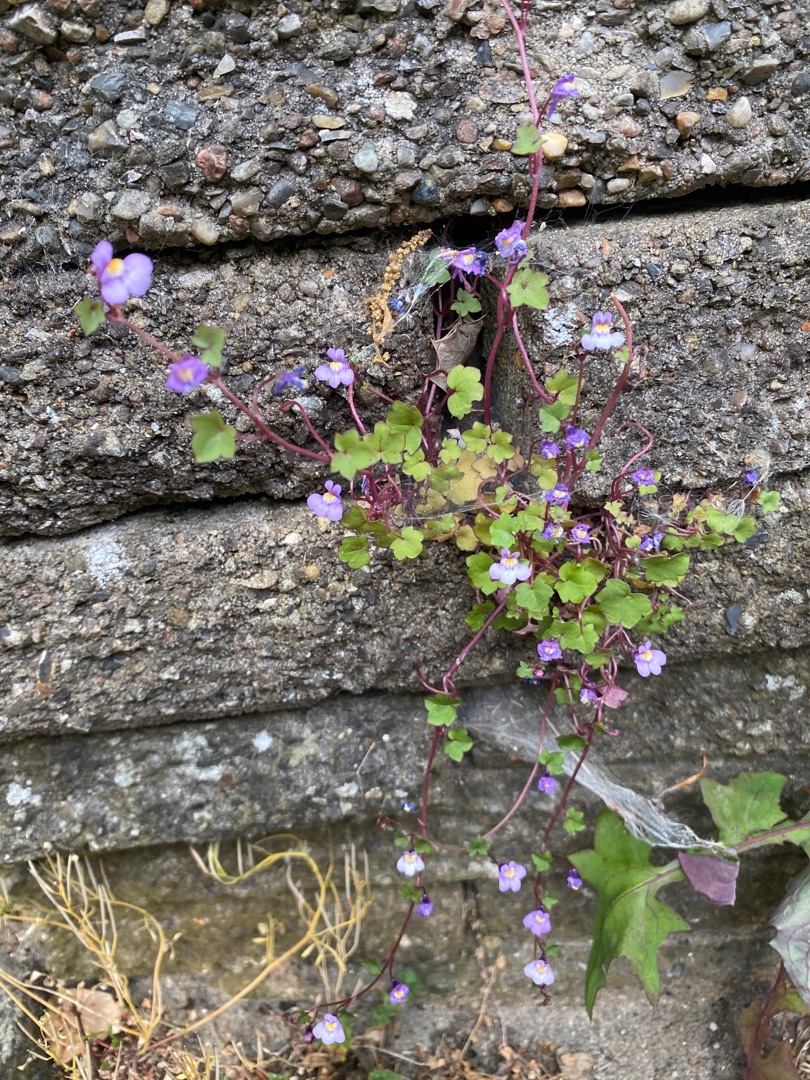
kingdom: Plantae
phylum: Tracheophyta
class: Magnoliopsida
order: Lamiales
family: Plantaginaceae
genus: Cymbalaria
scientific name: Cymbalaria muralis
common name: Vedbend-torskemund
